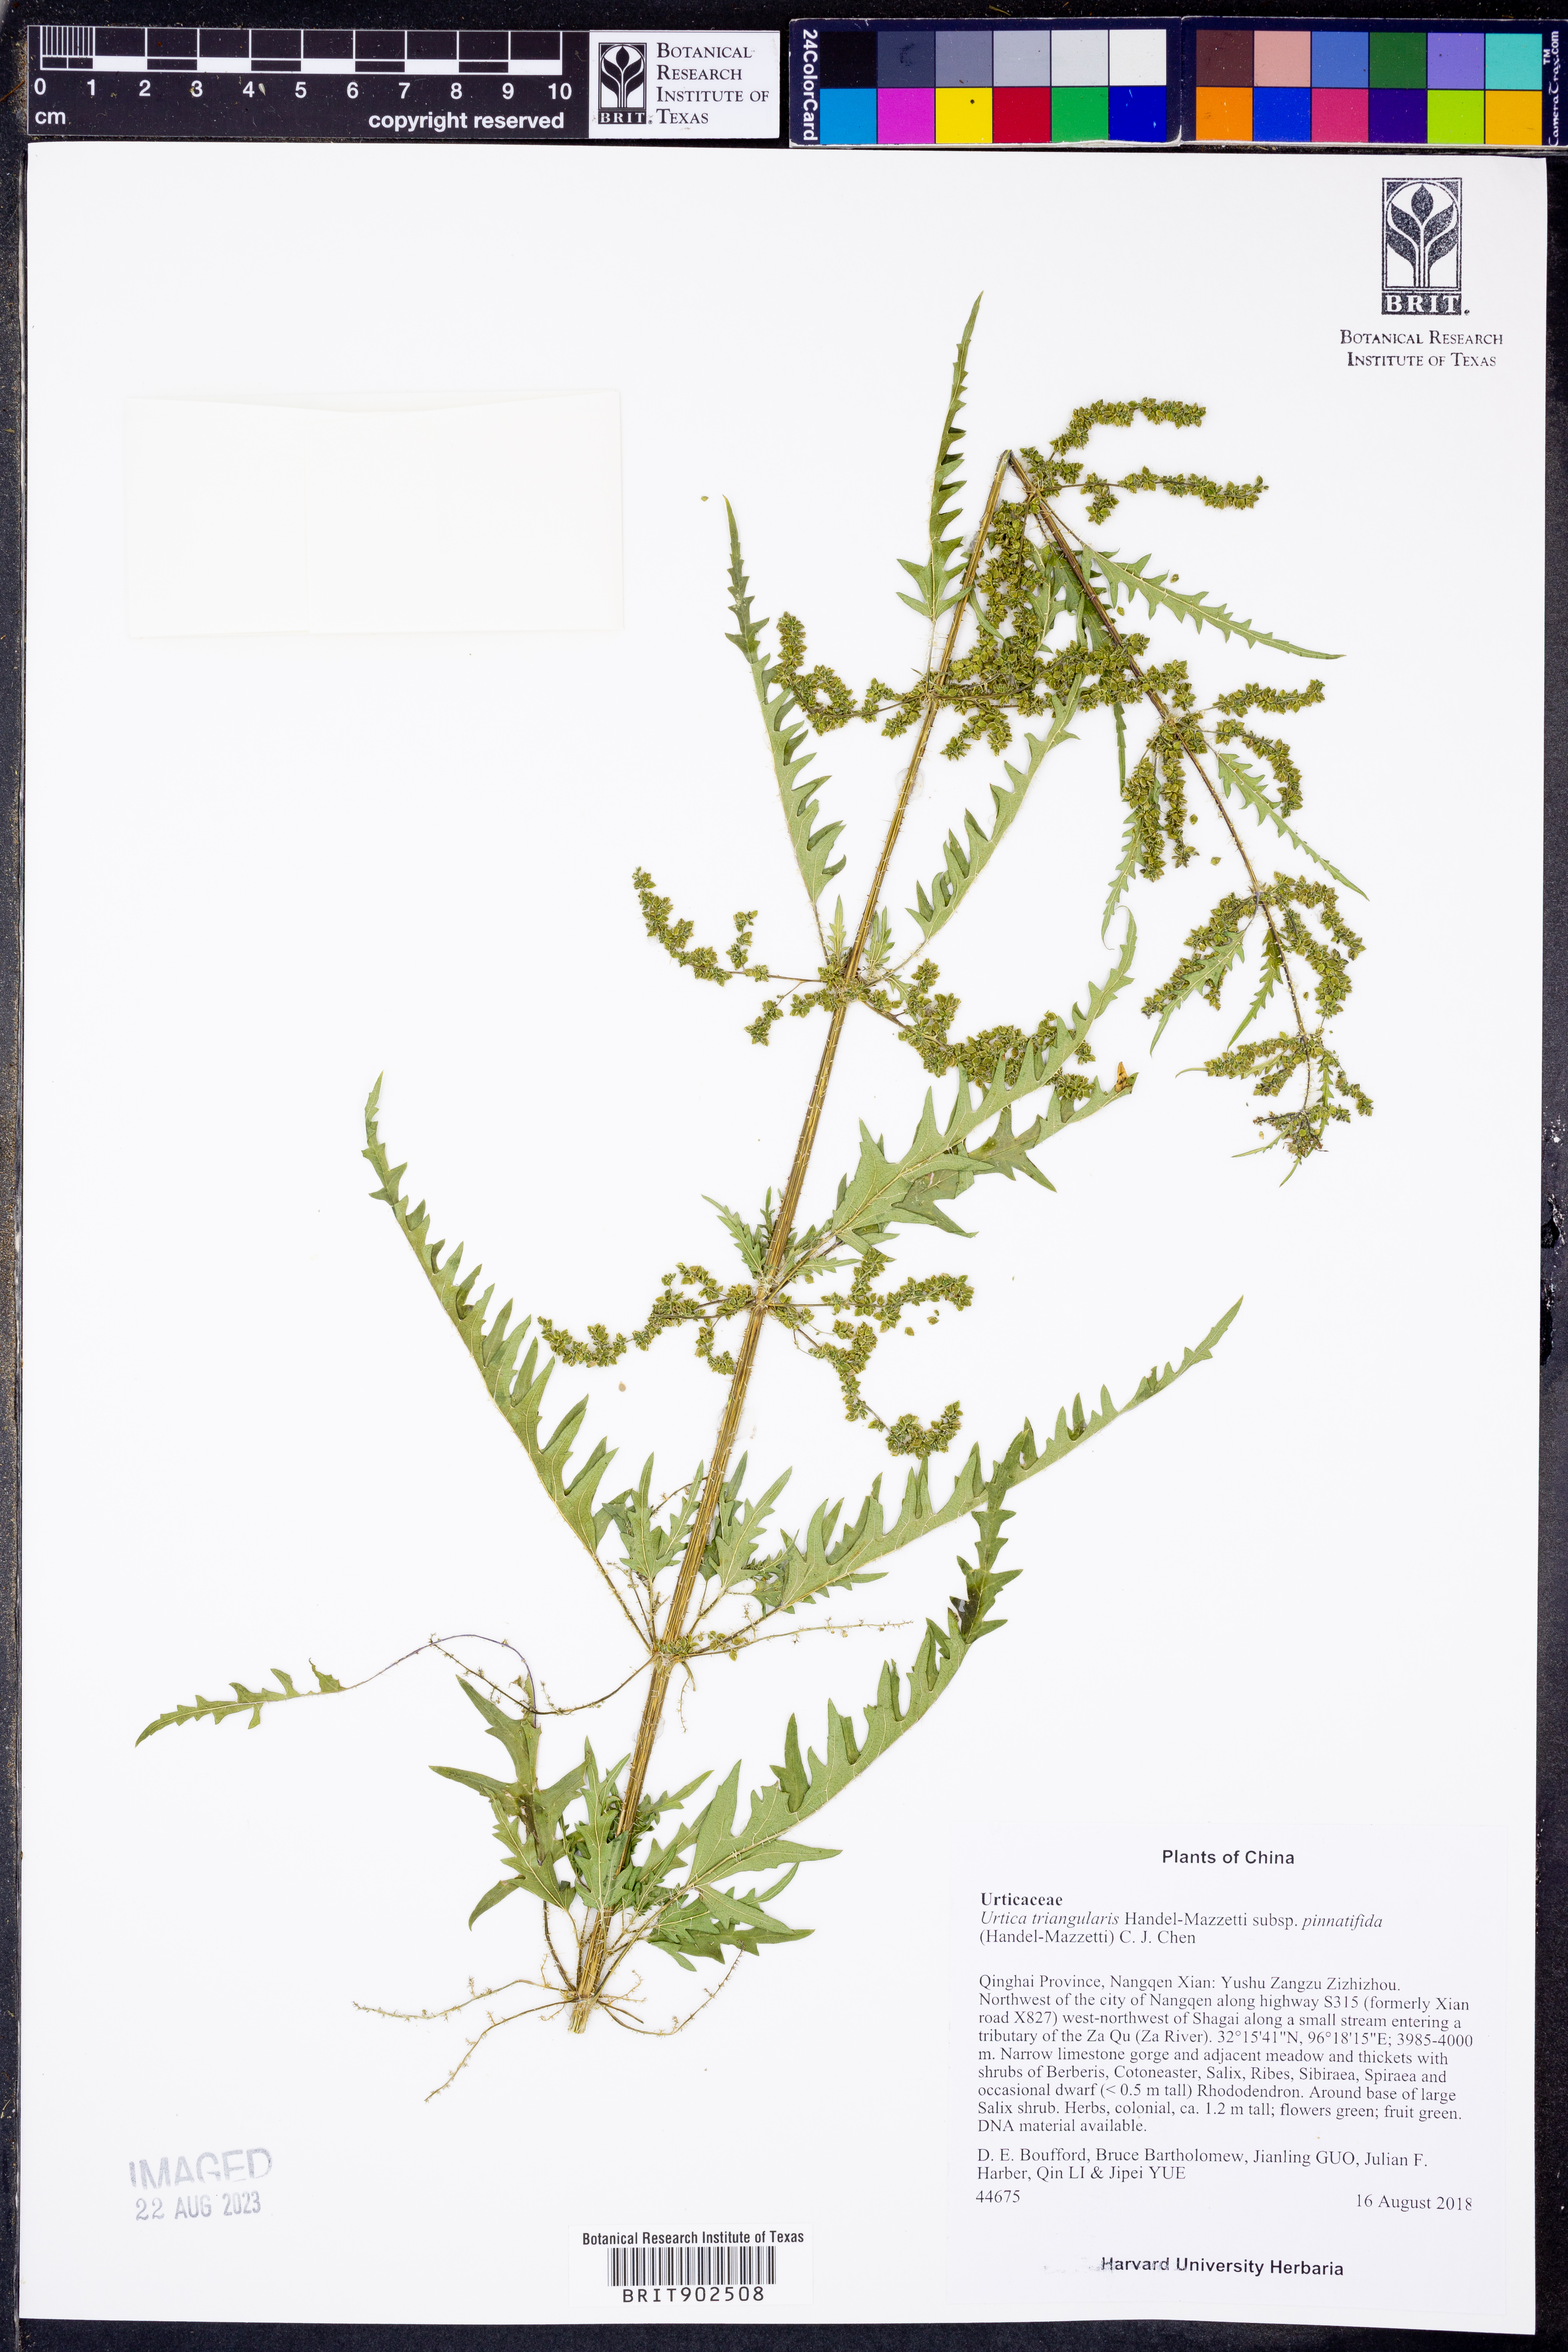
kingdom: Plantae
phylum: Tracheophyta
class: Magnoliopsida
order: Rosales
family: Urticaceae
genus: Urtica
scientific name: Urtica
